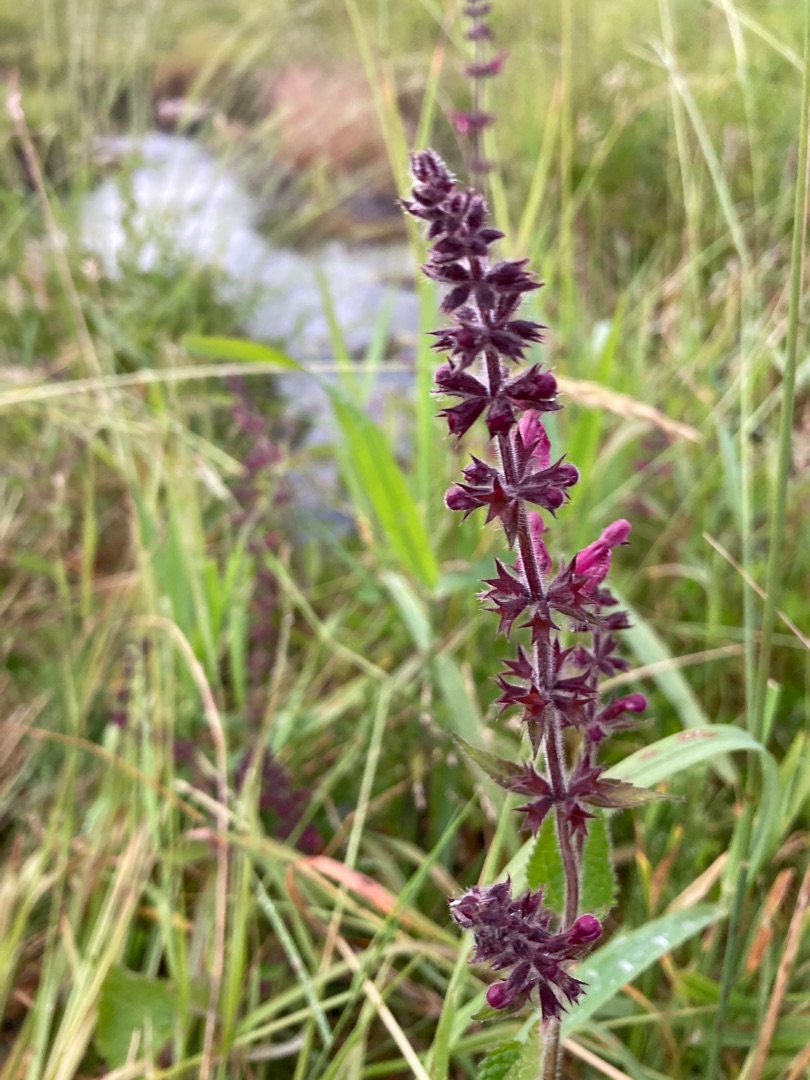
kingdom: Plantae
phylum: Tracheophyta
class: Magnoliopsida
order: Lamiales
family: Lamiaceae
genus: Stachys
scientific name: Stachys sylvatica
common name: Skov-galtetand
